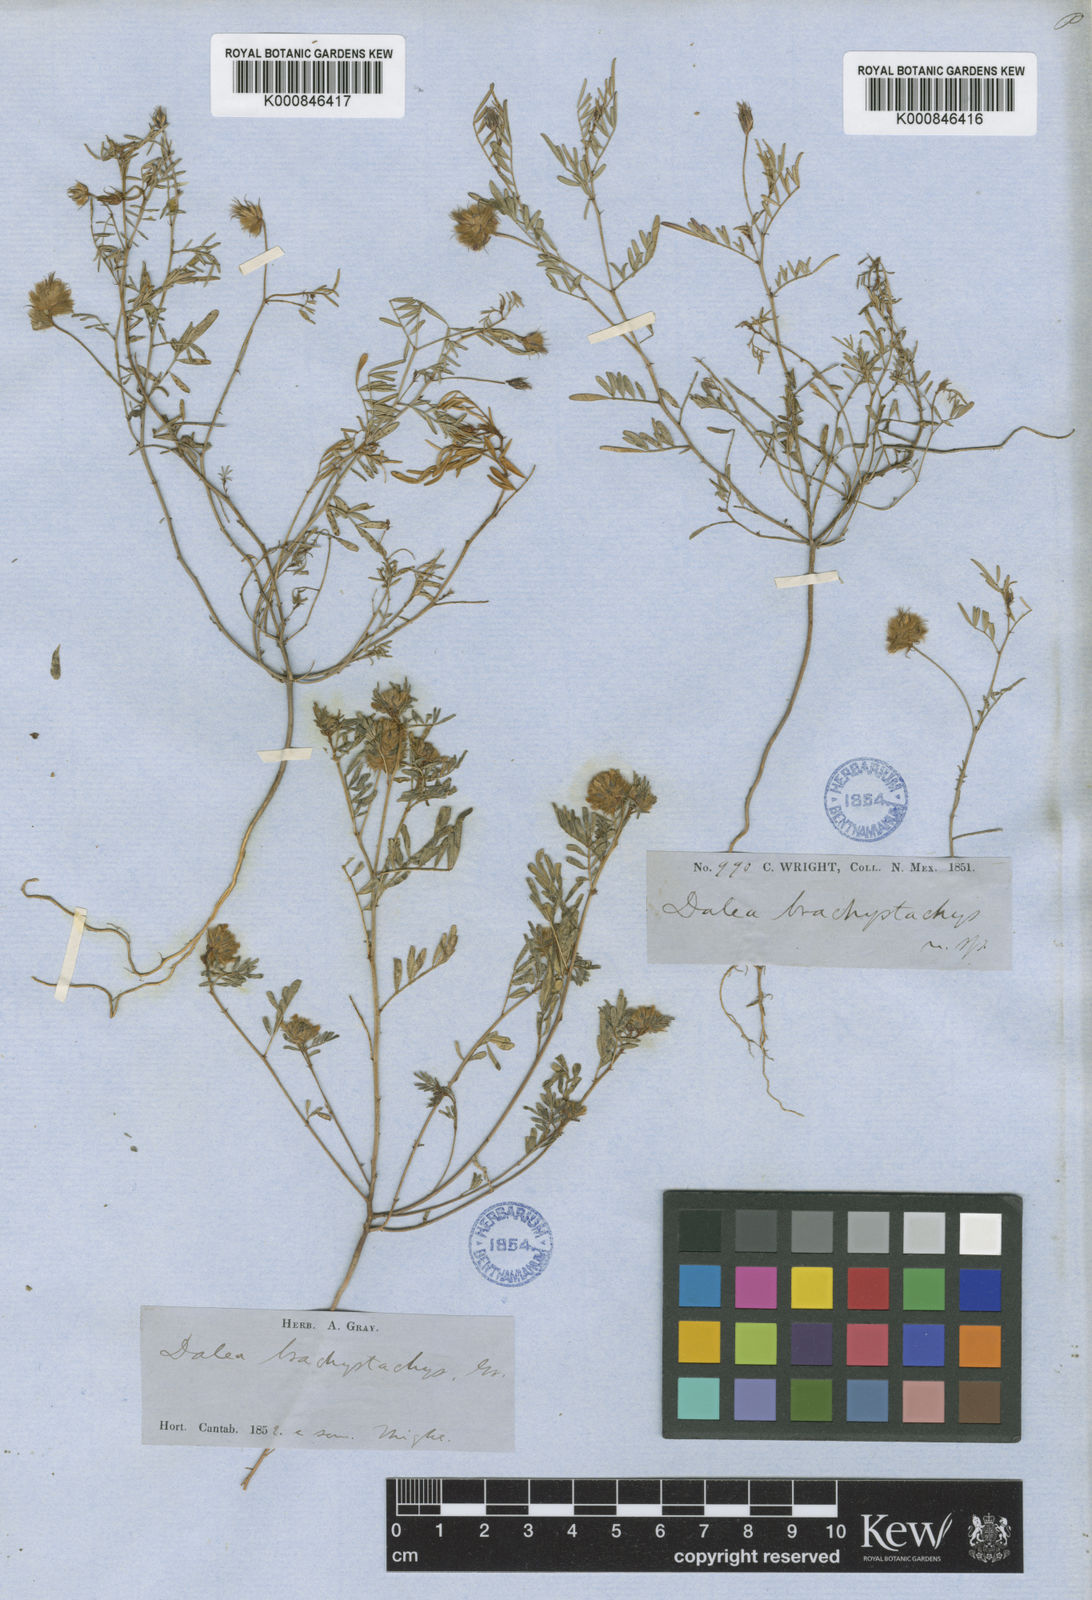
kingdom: Plantae
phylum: Tracheophyta
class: Magnoliopsida
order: Fabales
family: Fabaceae
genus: Dalea
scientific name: Dalea
